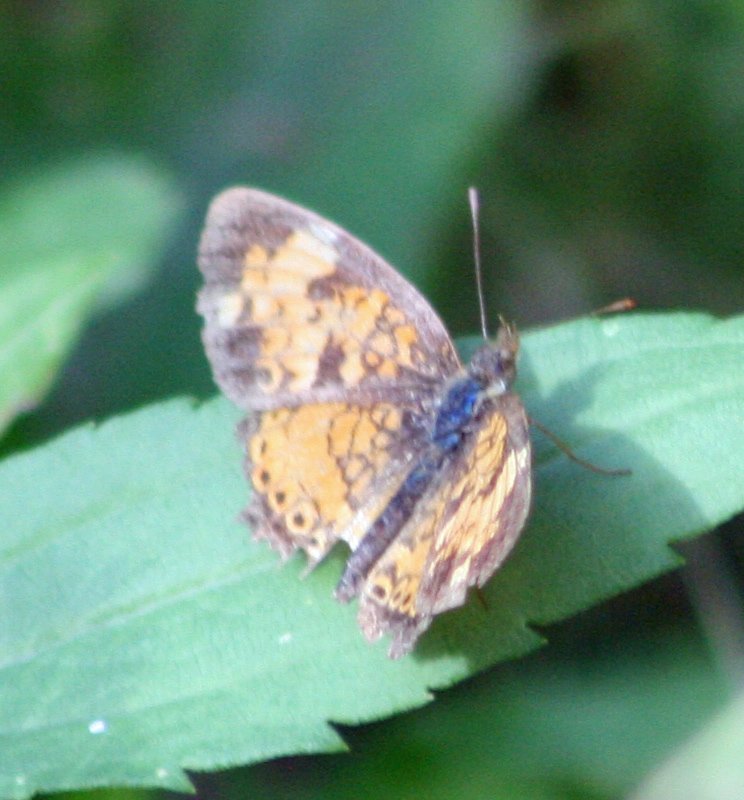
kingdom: Animalia
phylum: Arthropoda
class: Insecta
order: Lepidoptera
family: Nymphalidae
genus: Phyciodes
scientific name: Phyciodes tharos
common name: Northern Crescent
